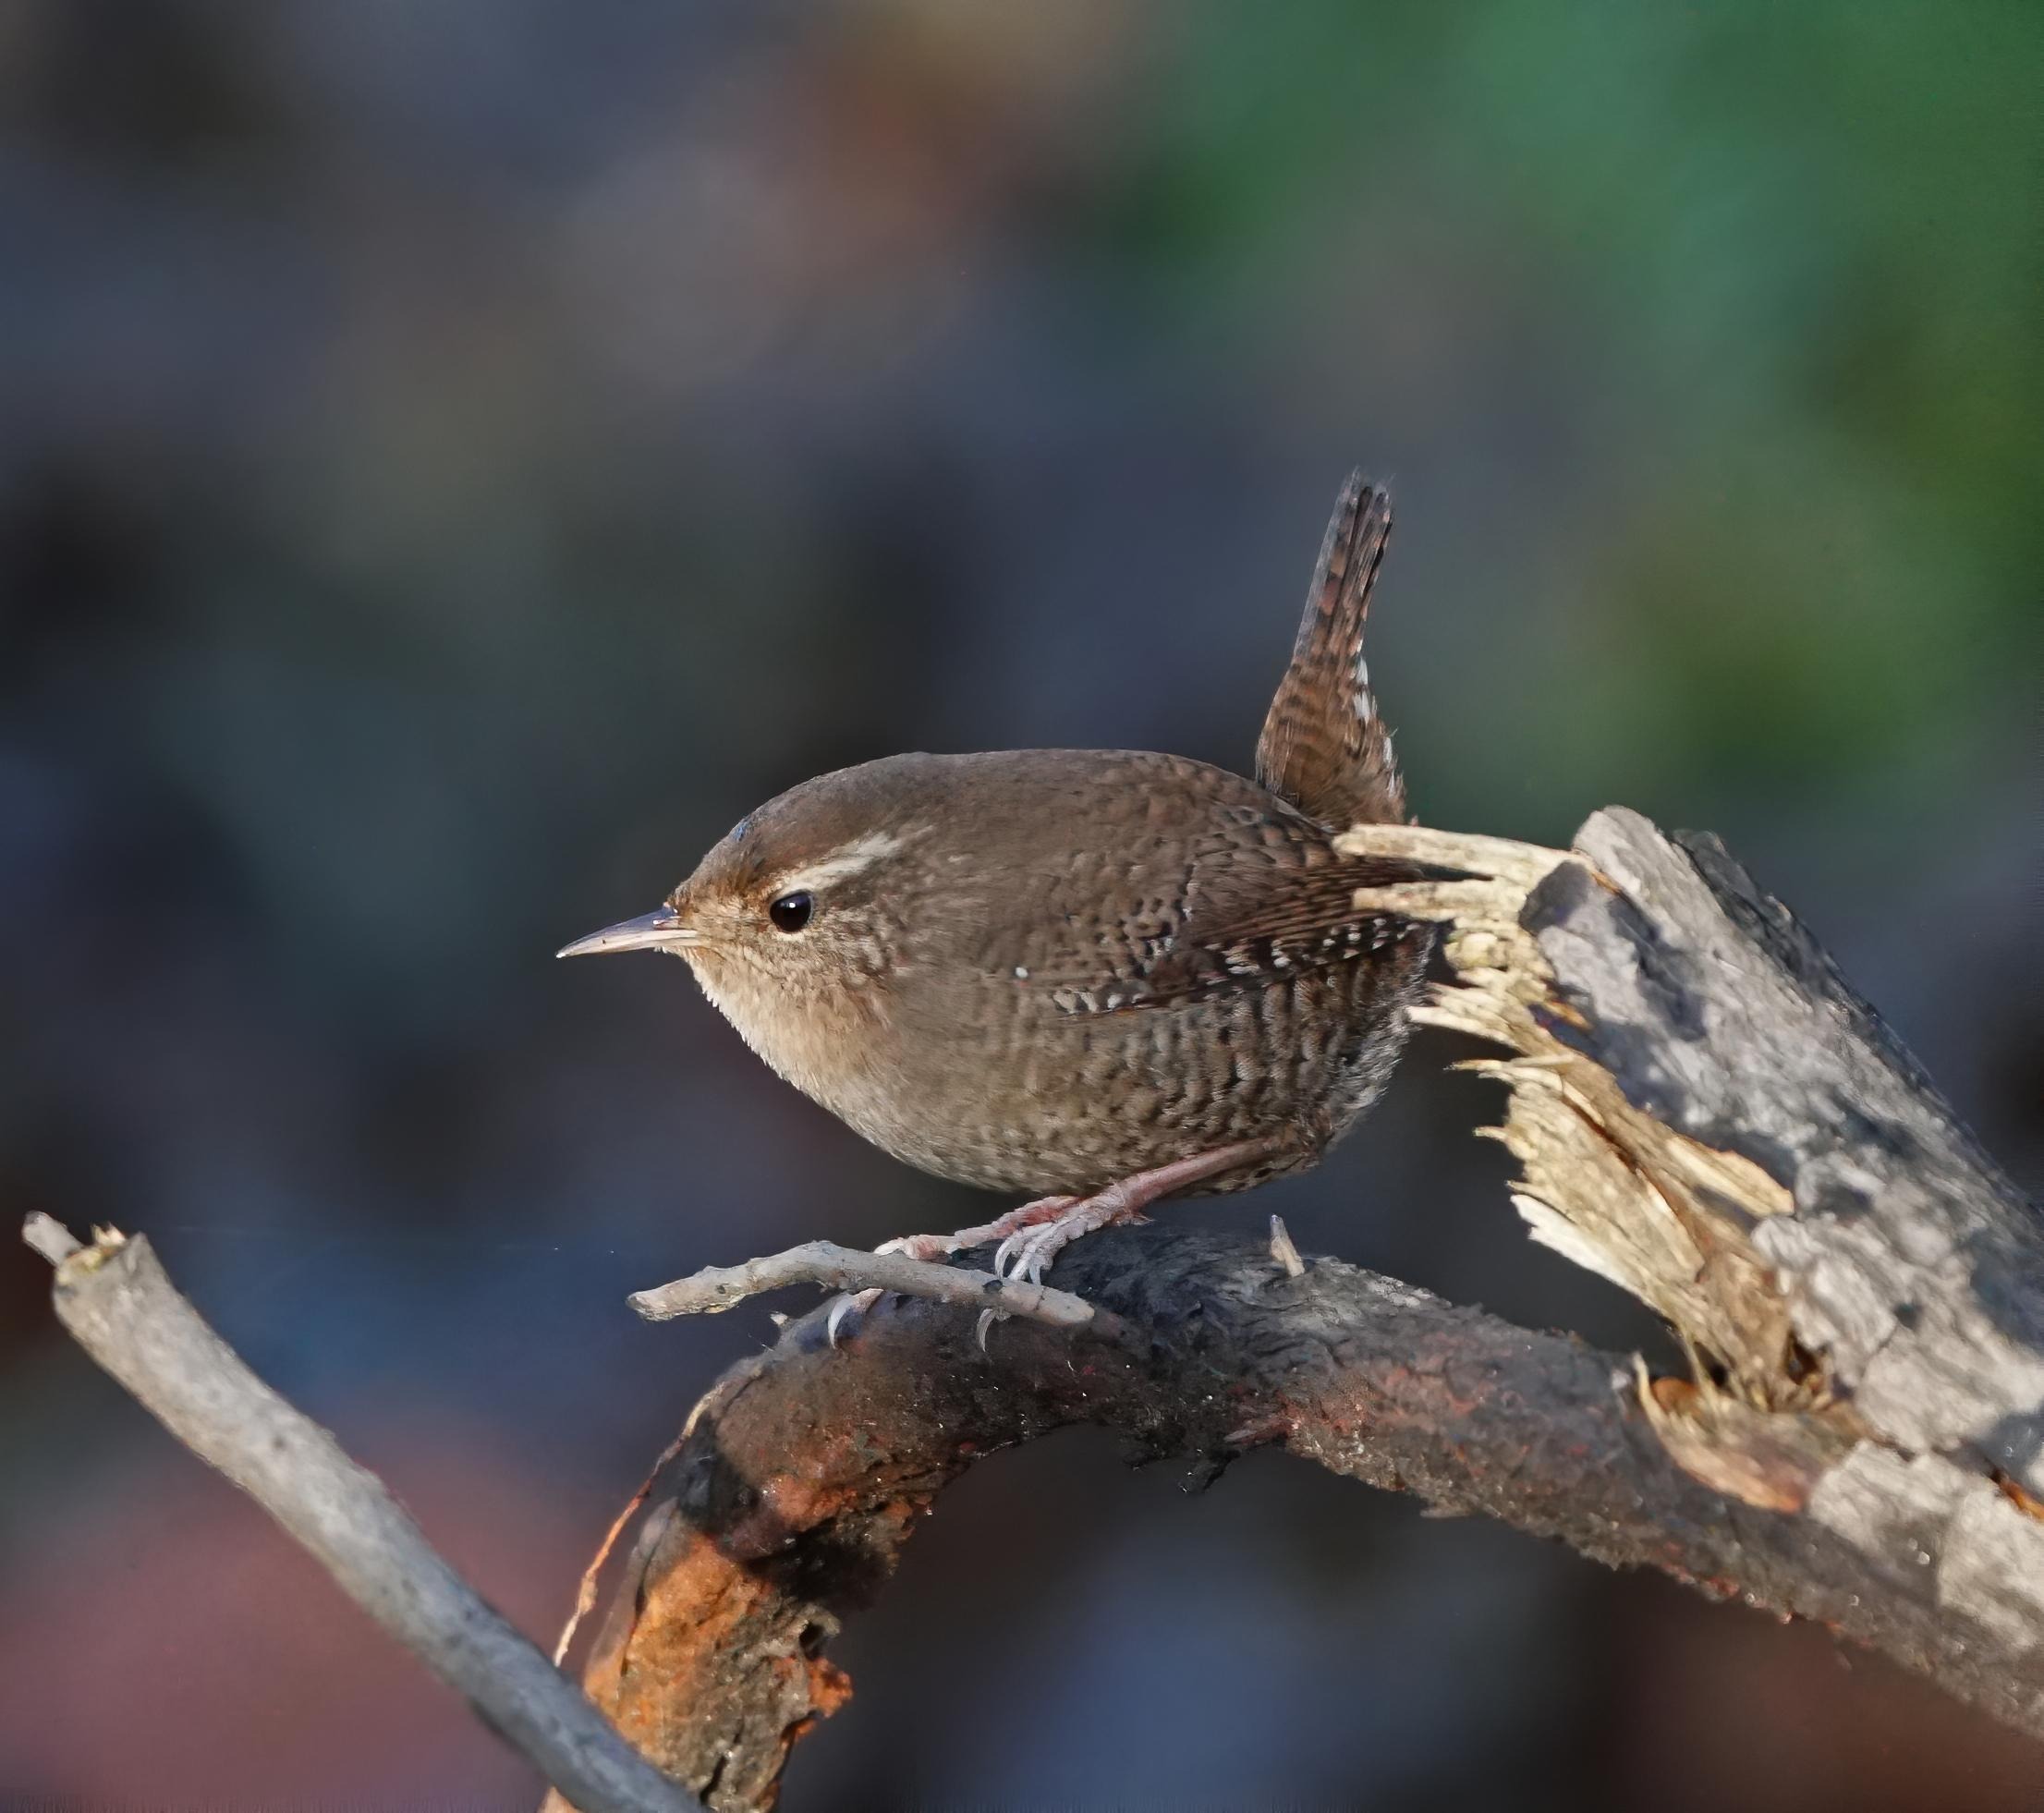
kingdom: Animalia
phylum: Chordata
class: Aves
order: Passeriformes
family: Troglodytidae
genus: Troglodytes
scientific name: Troglodytes troglodytes
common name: Gærdesmutte
